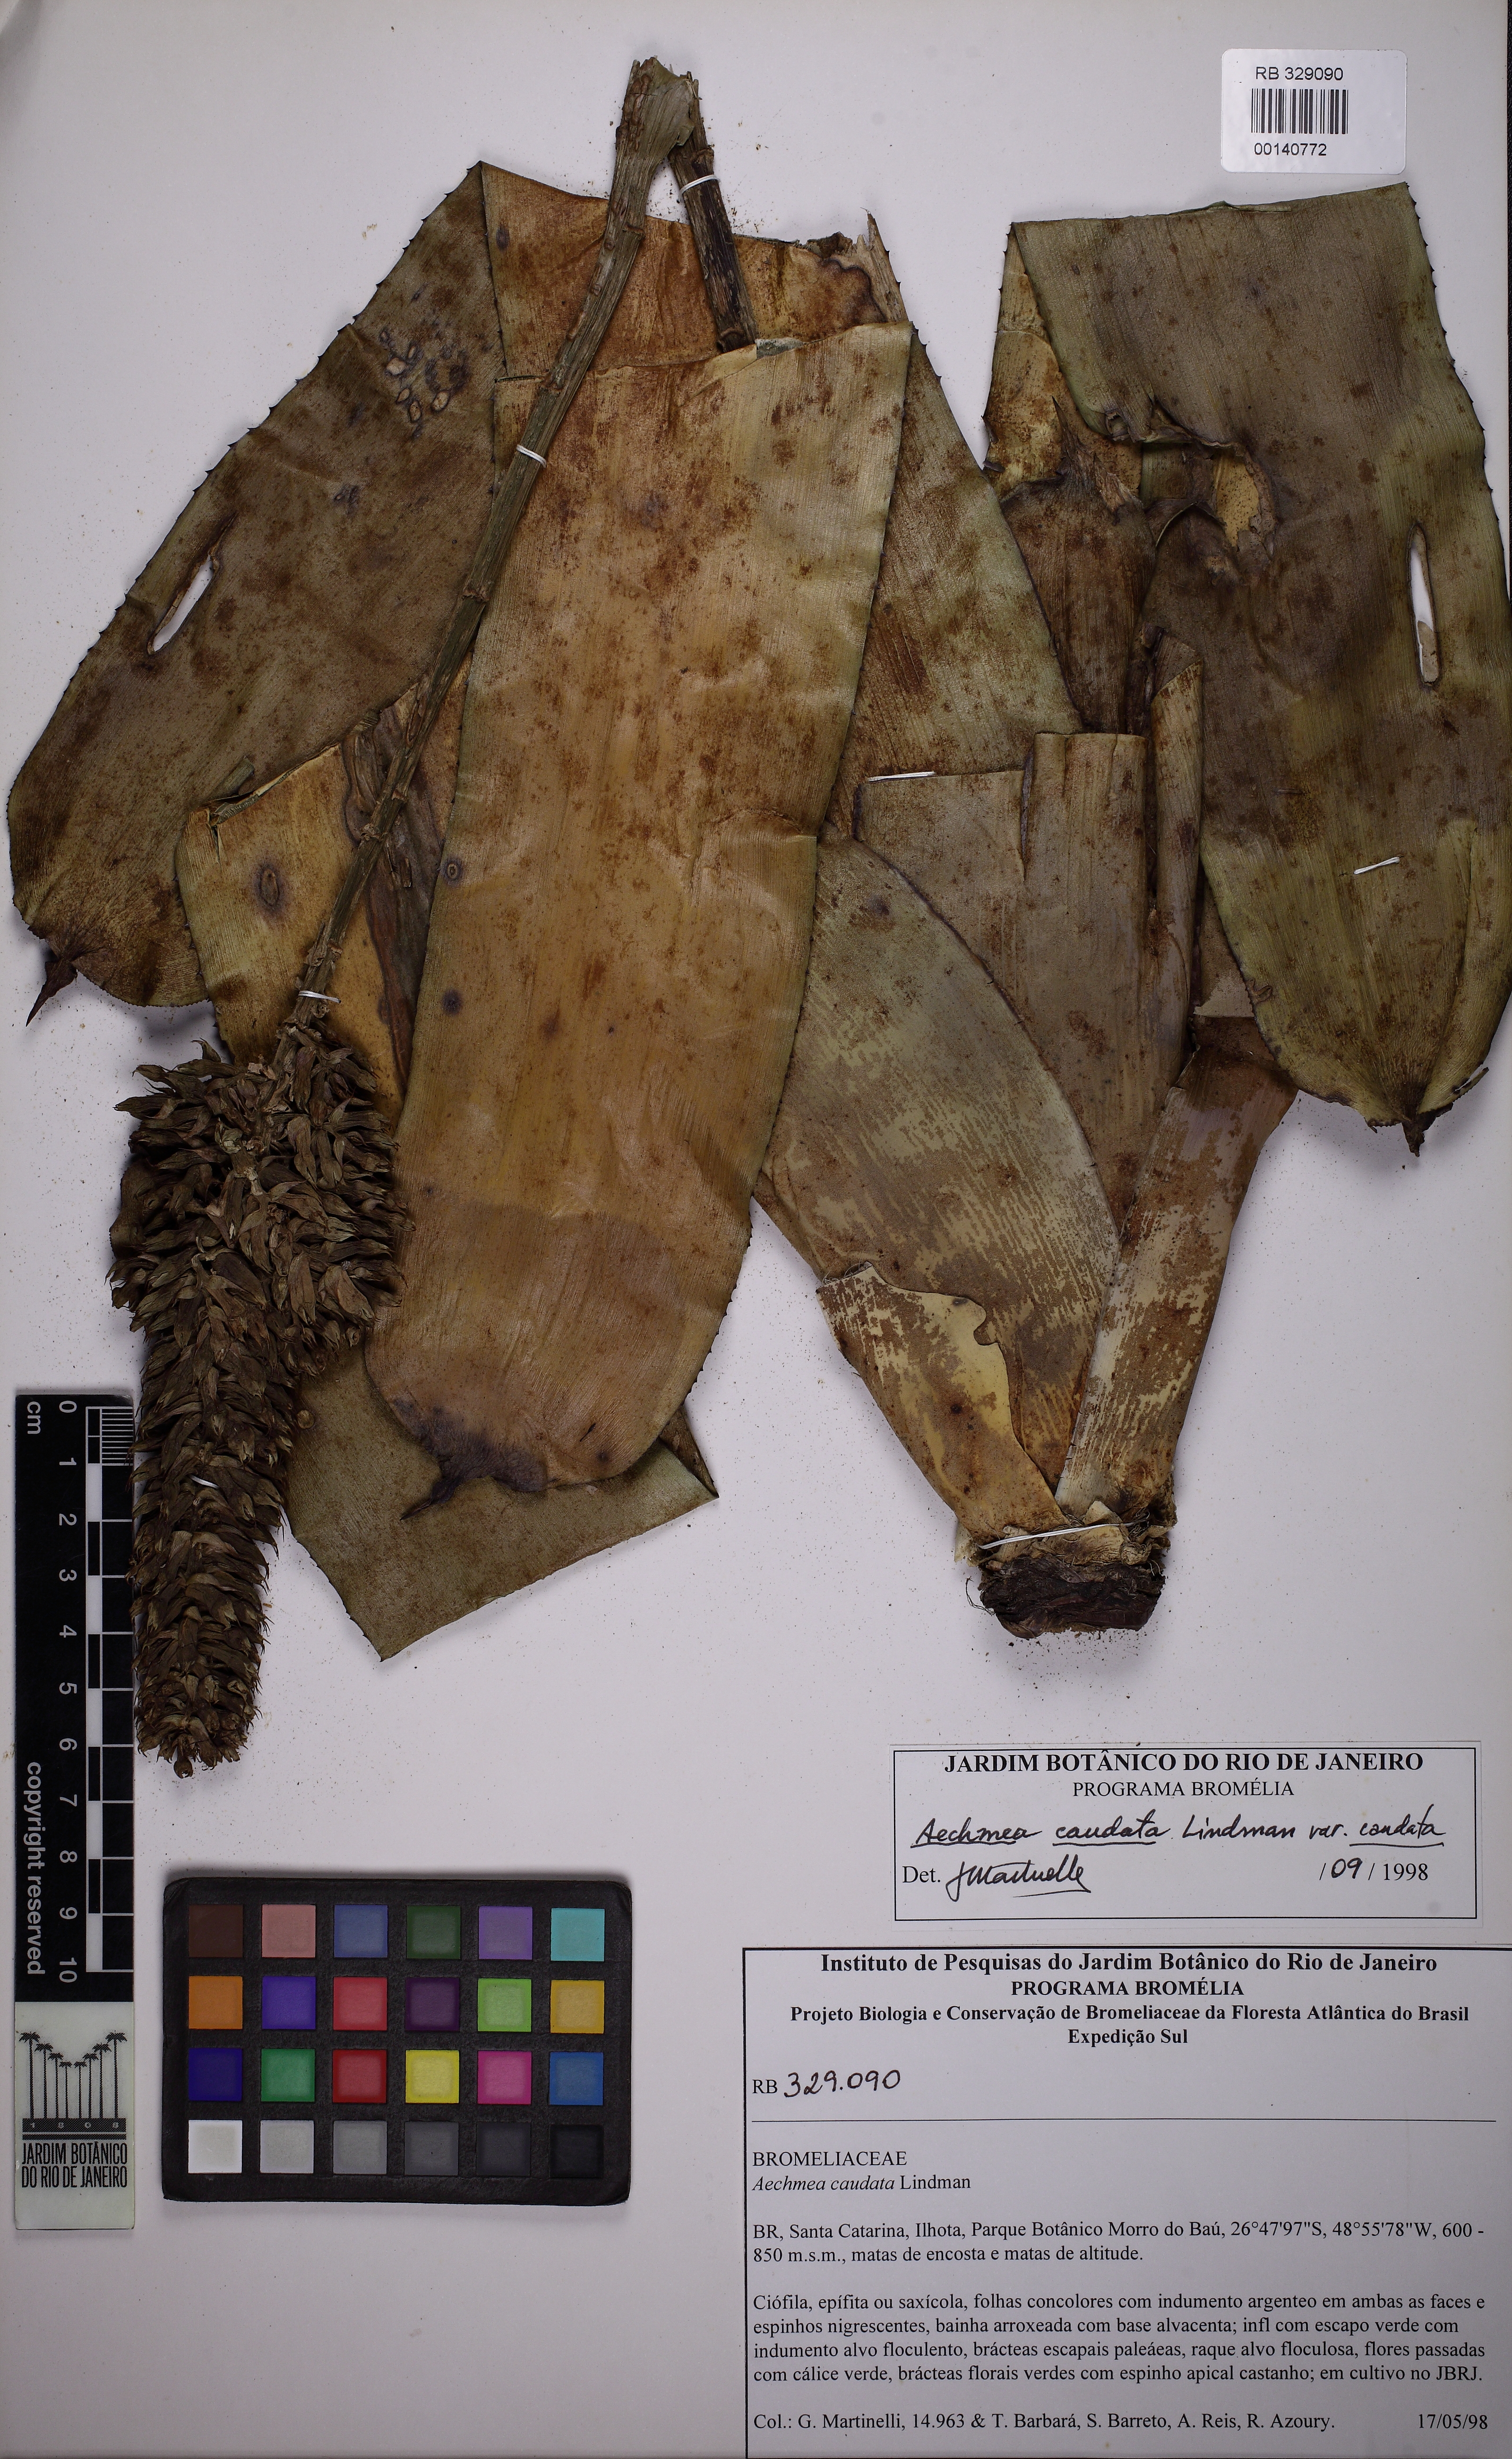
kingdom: Plantae
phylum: Tracheophyta
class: Liliopsida
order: Poales
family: Bromeliaceae
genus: Aechmea
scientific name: Aechmea caudata
